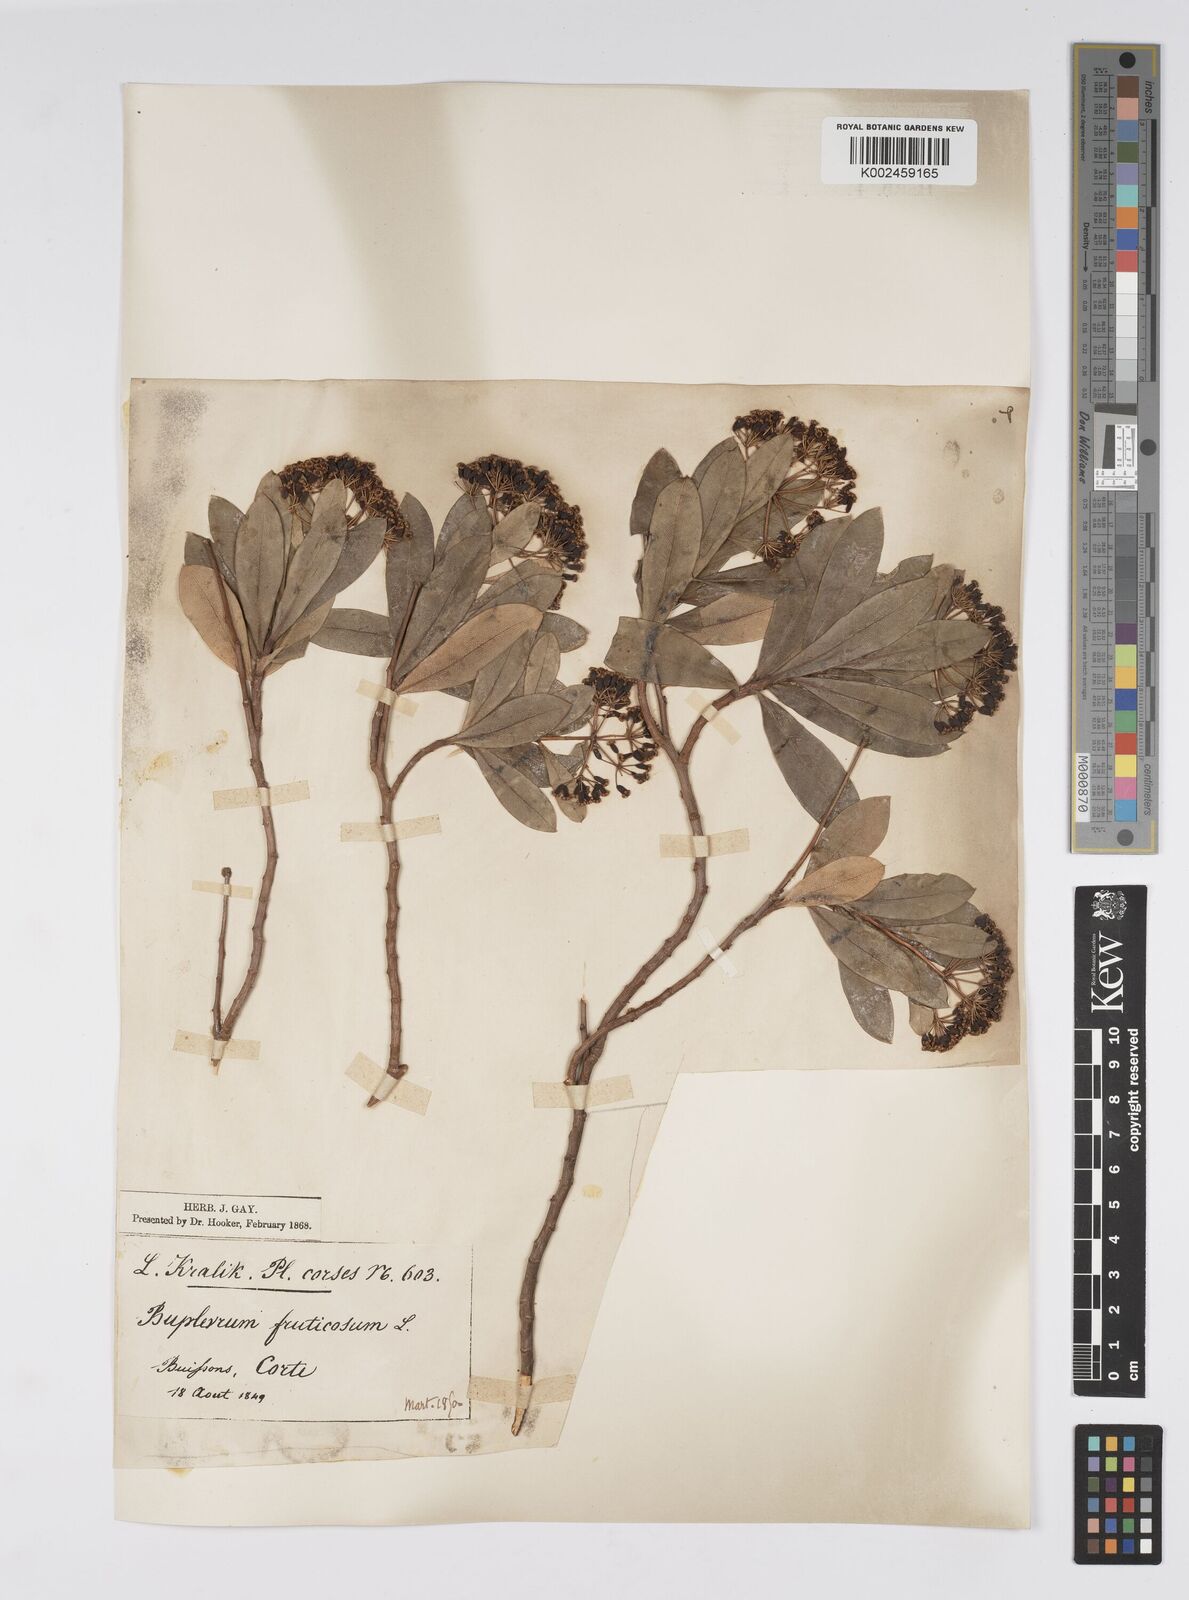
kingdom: Plantae
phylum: Tracheophyta
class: Magnoliopsida
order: Apiales
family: Apiaceae
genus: Bupleurum
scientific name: Bupleurum fruticosum
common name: Shrubby hare's-ear
